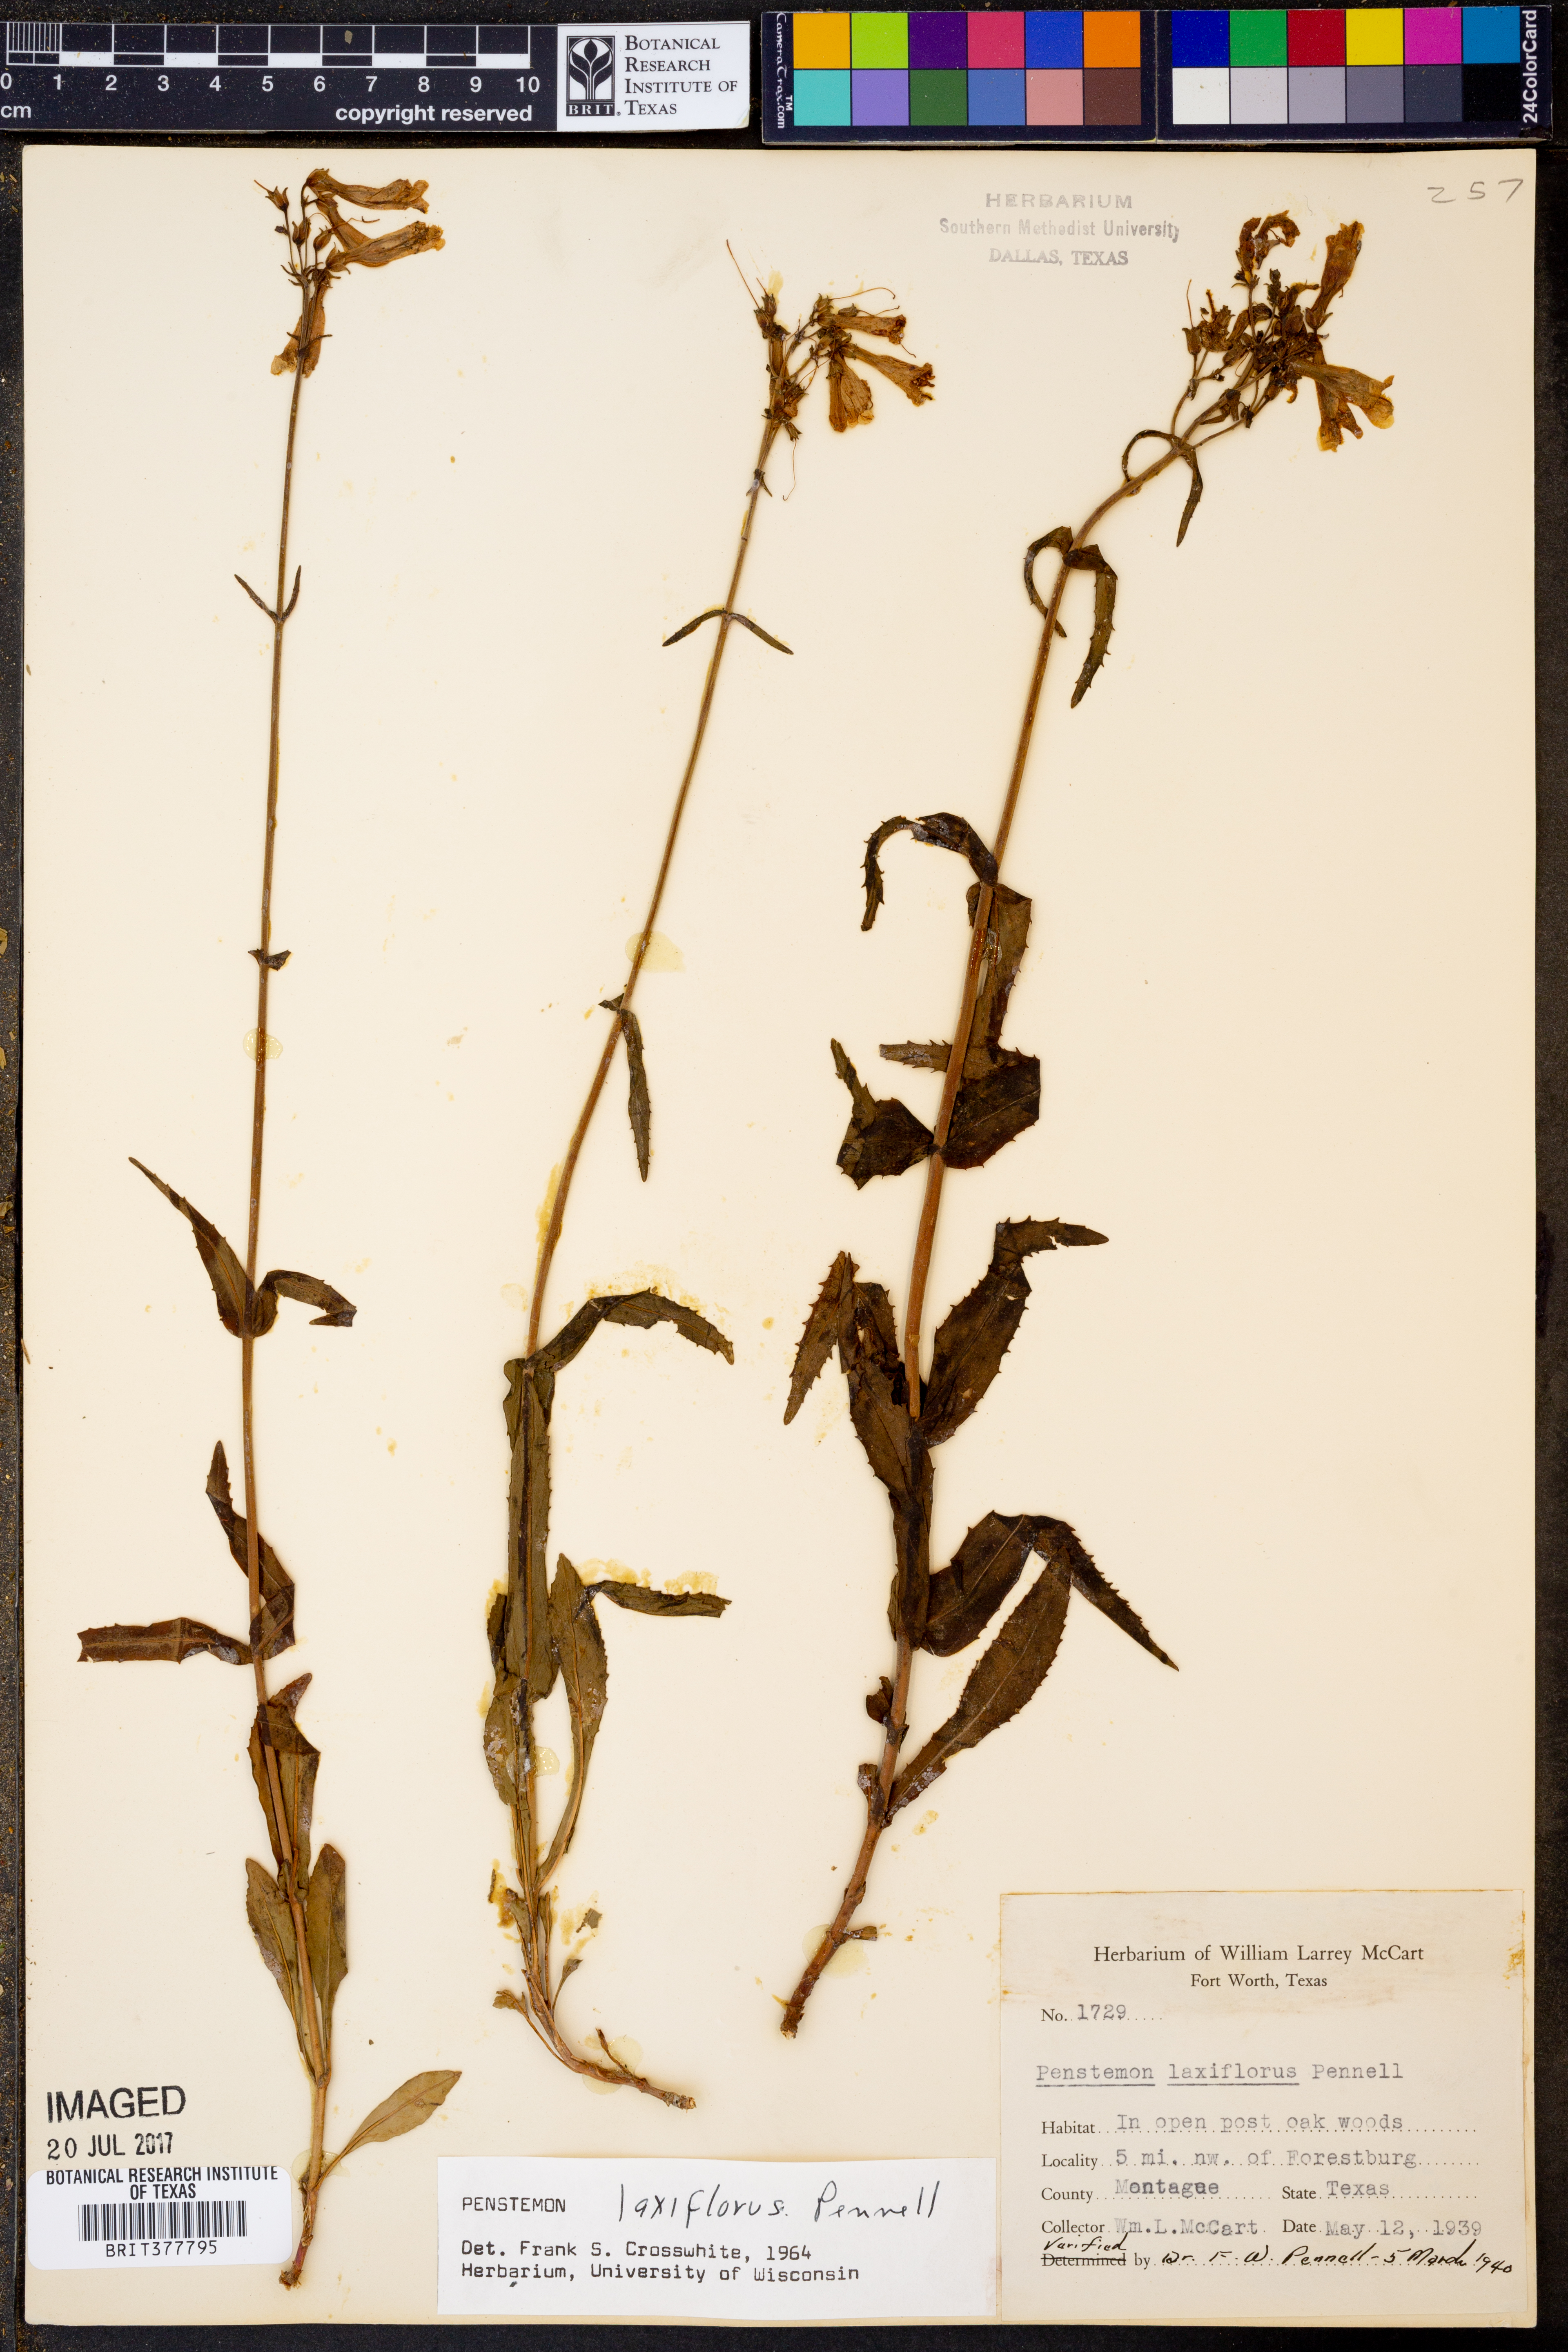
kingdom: Plantae
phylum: Tracheophyta
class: Magnoliopsida
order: Lamiales
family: Plantaginaceae
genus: Penstemon
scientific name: Penstemon laxiflorus
